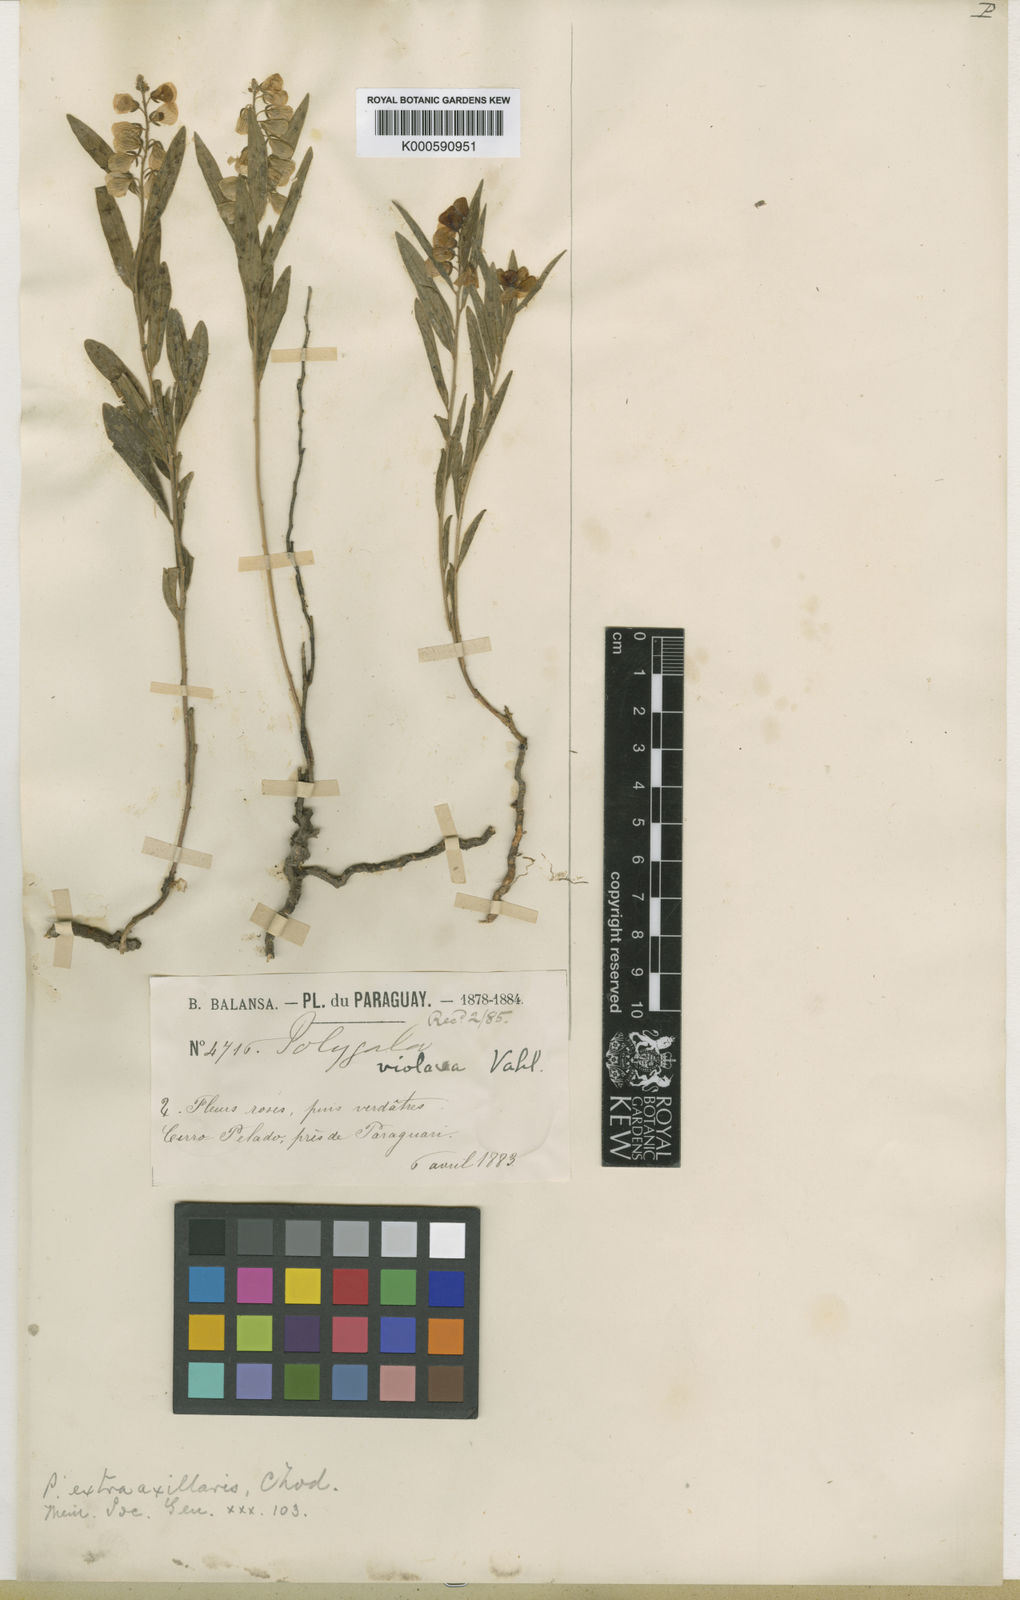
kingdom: Plantae
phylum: Tracheophyta
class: Magnoliopsida
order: Fabales
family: Polygalaceae
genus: Asemeia
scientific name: Asemeia extraaxillaris
